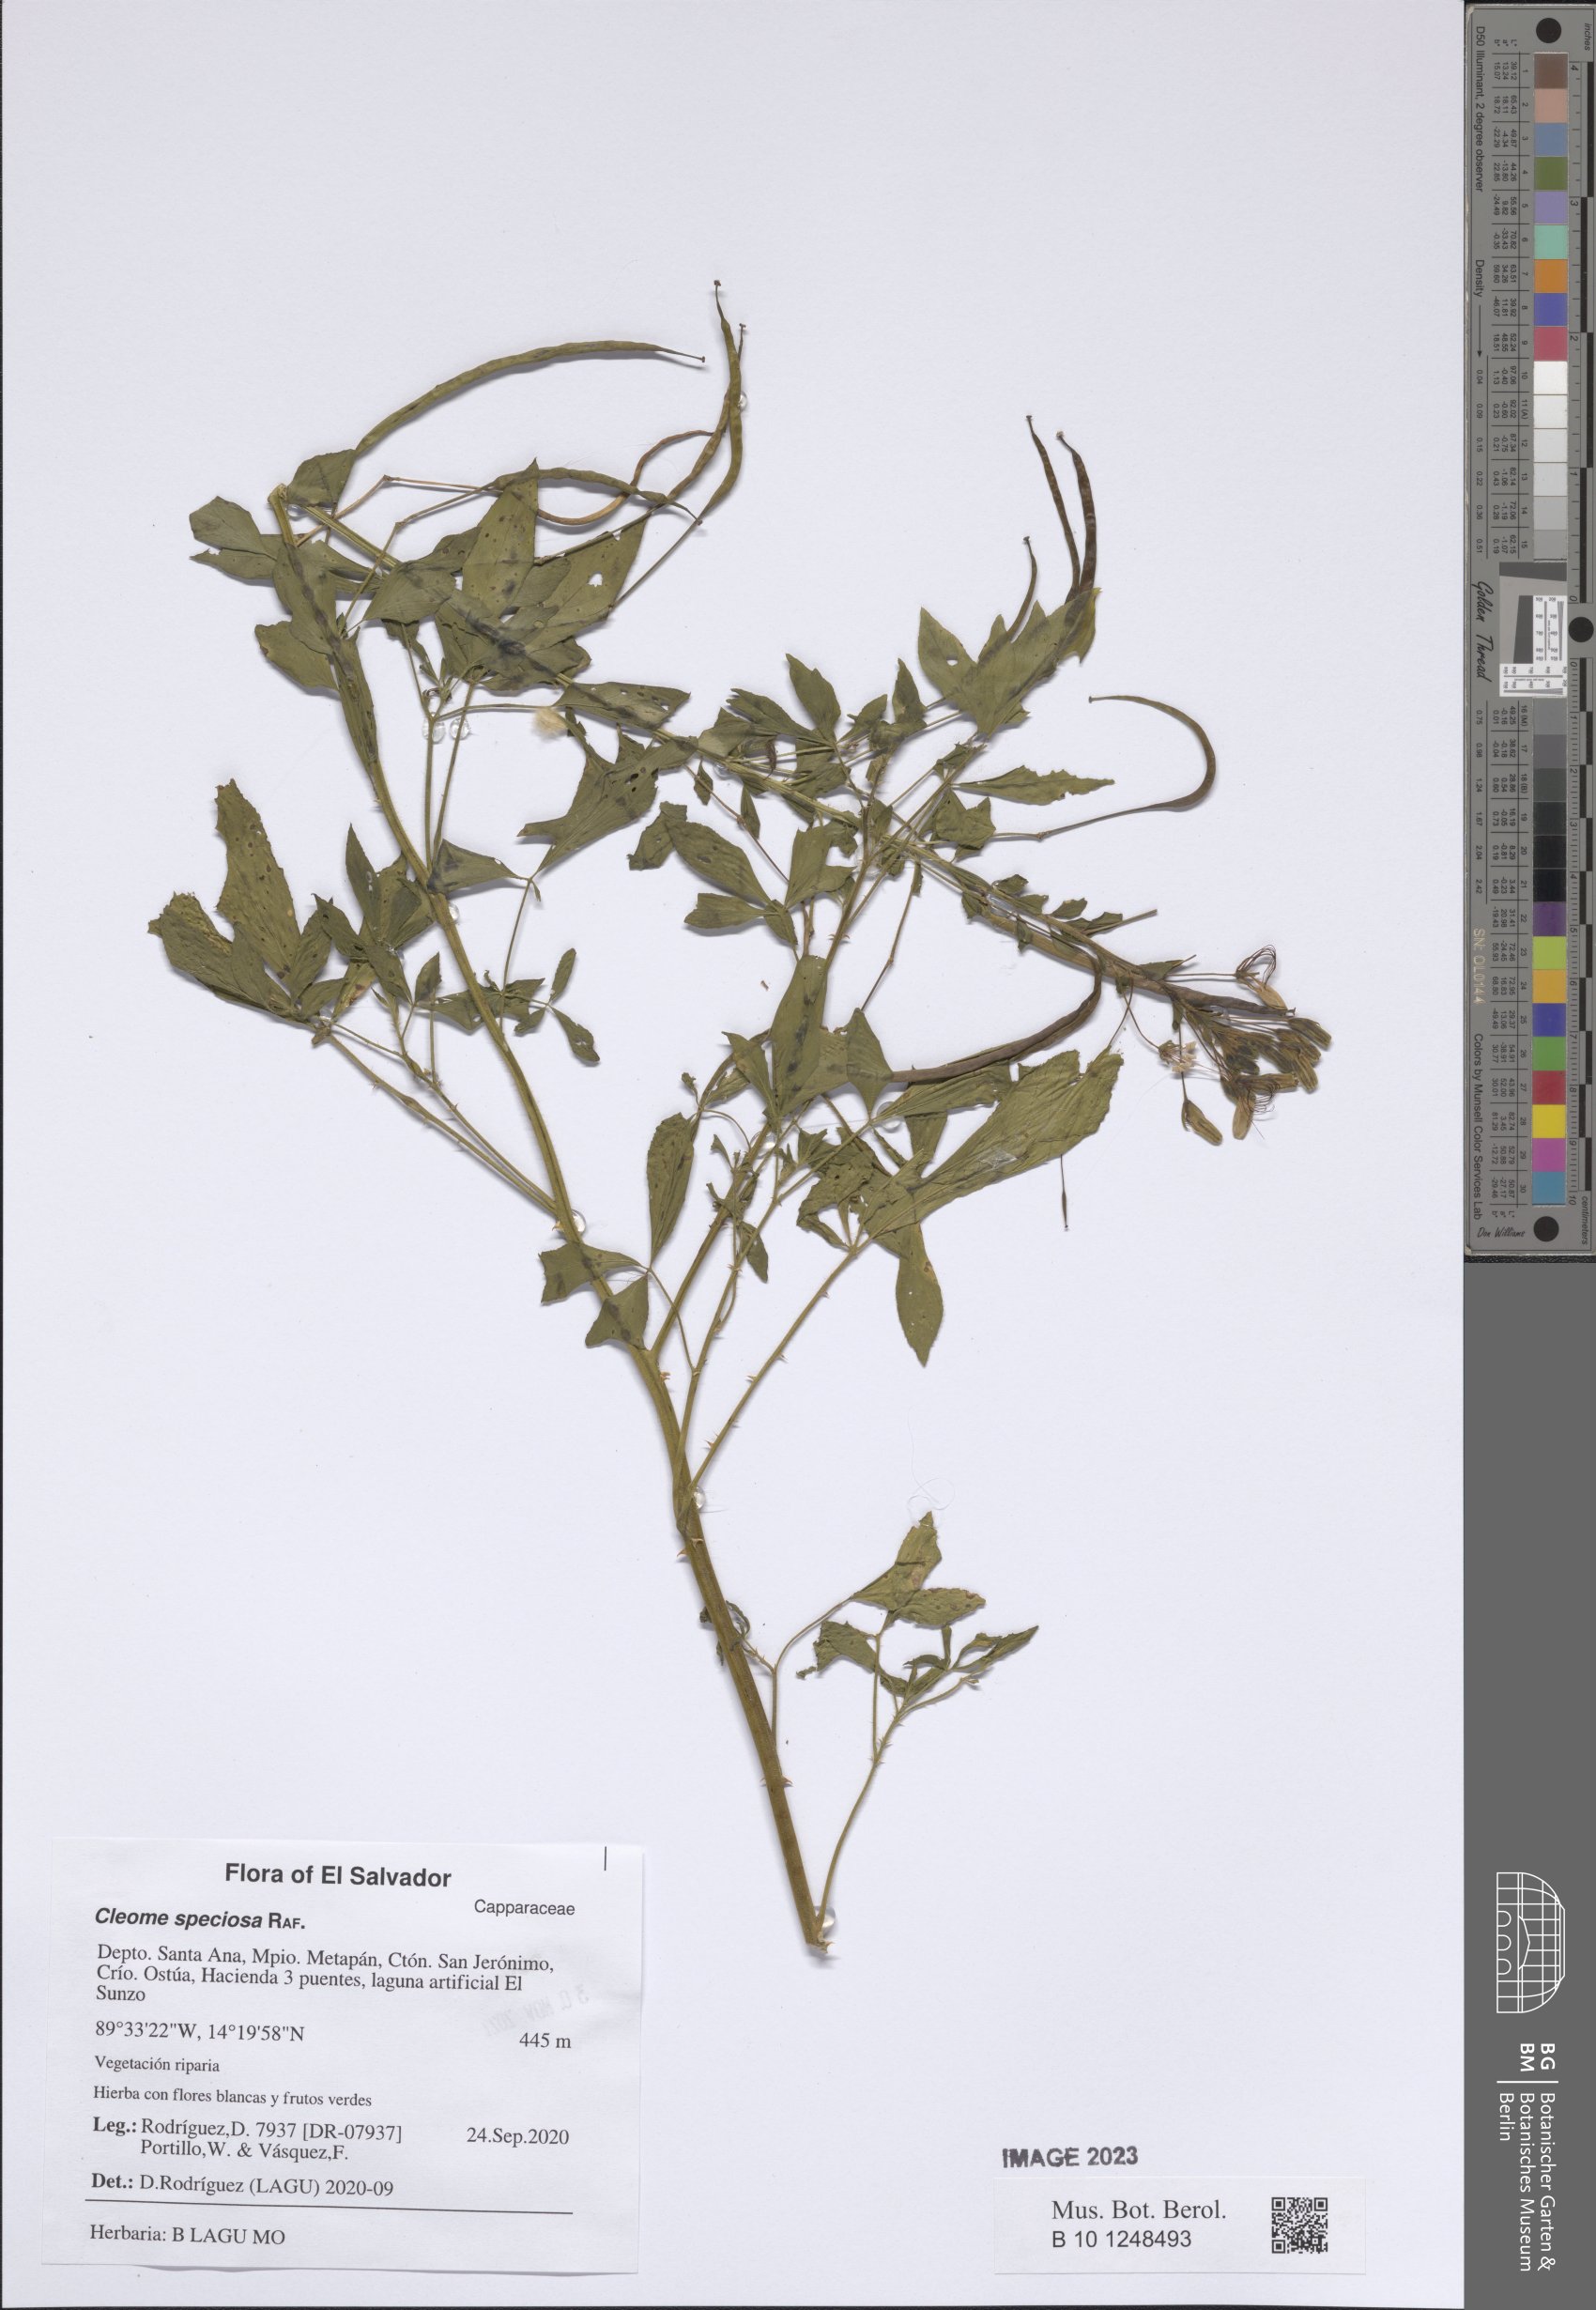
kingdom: Plantae
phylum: Tracheophyta
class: Magnoliopsida
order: Brassicales
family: Cleomaceae
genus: Tarenaya
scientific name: Tarenaya spinosa
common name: Spiny spiderflower
